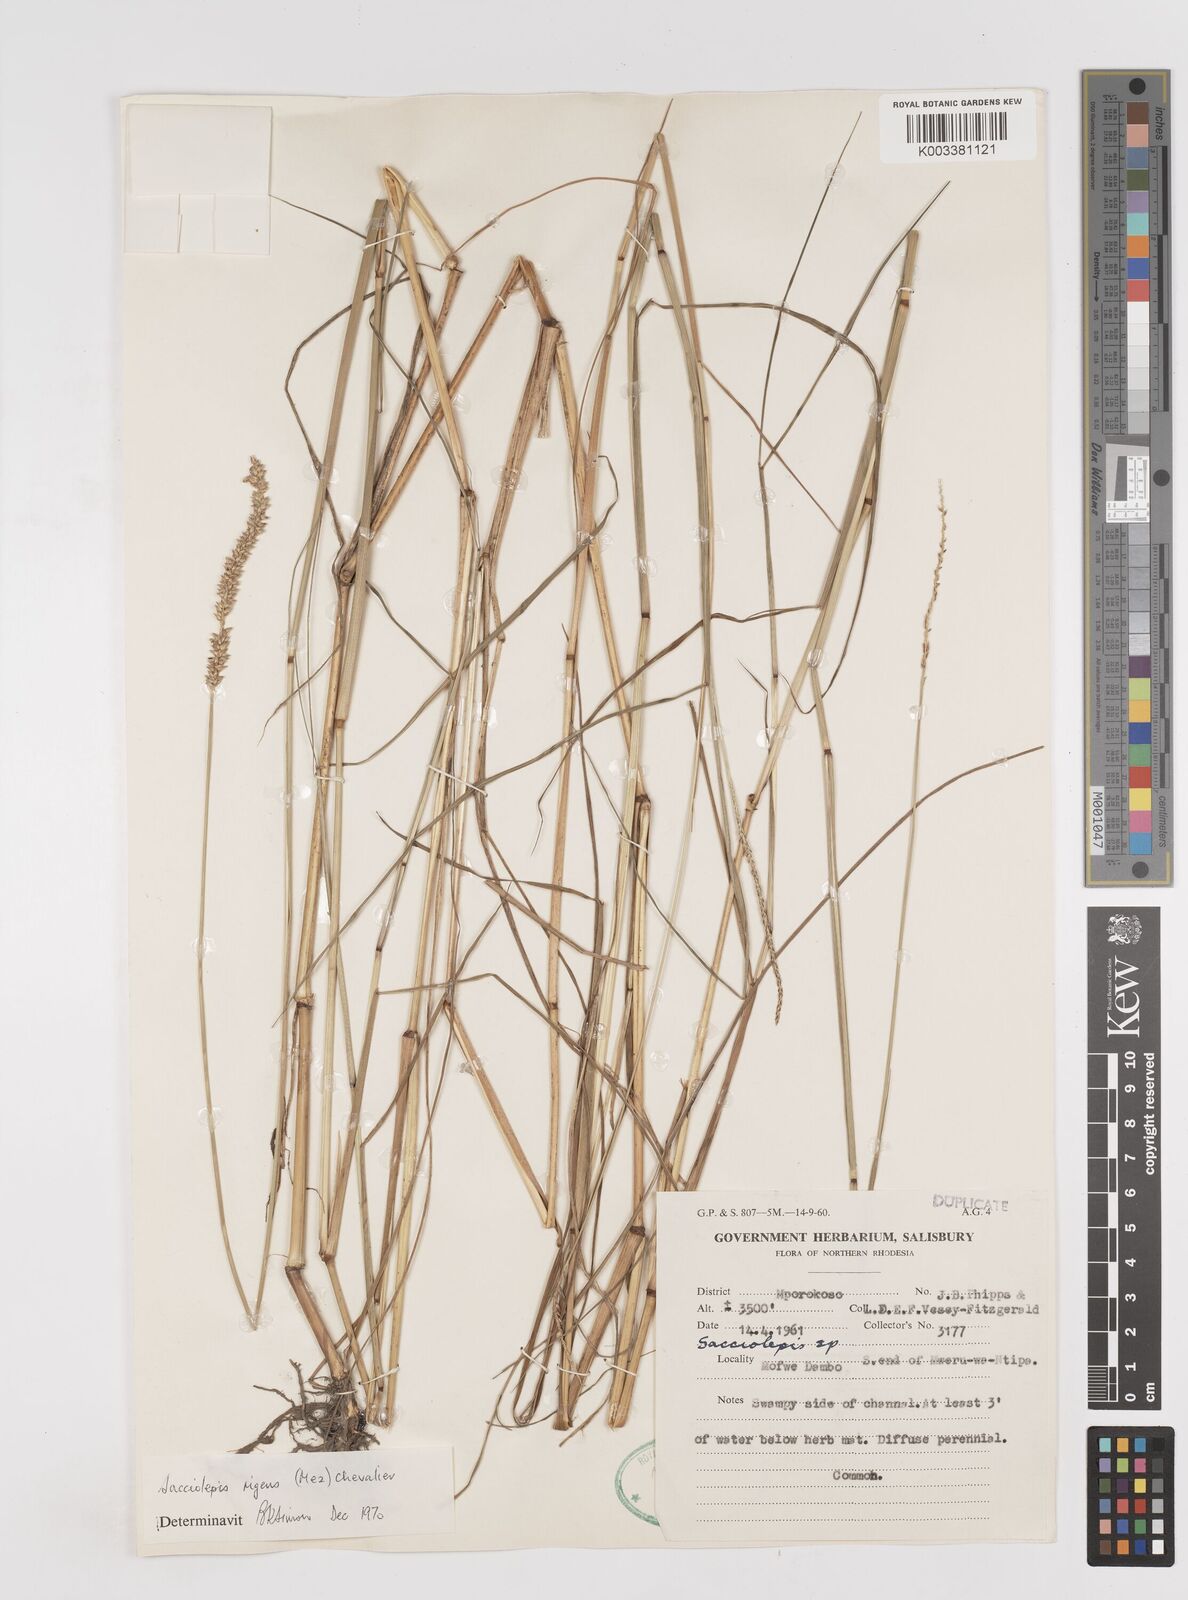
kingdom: Plantae
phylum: Tracheophyta
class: Liliopsida
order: Poales
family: Poaceae
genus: Sacciolepis
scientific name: Sacciolepis leptorrhachis
